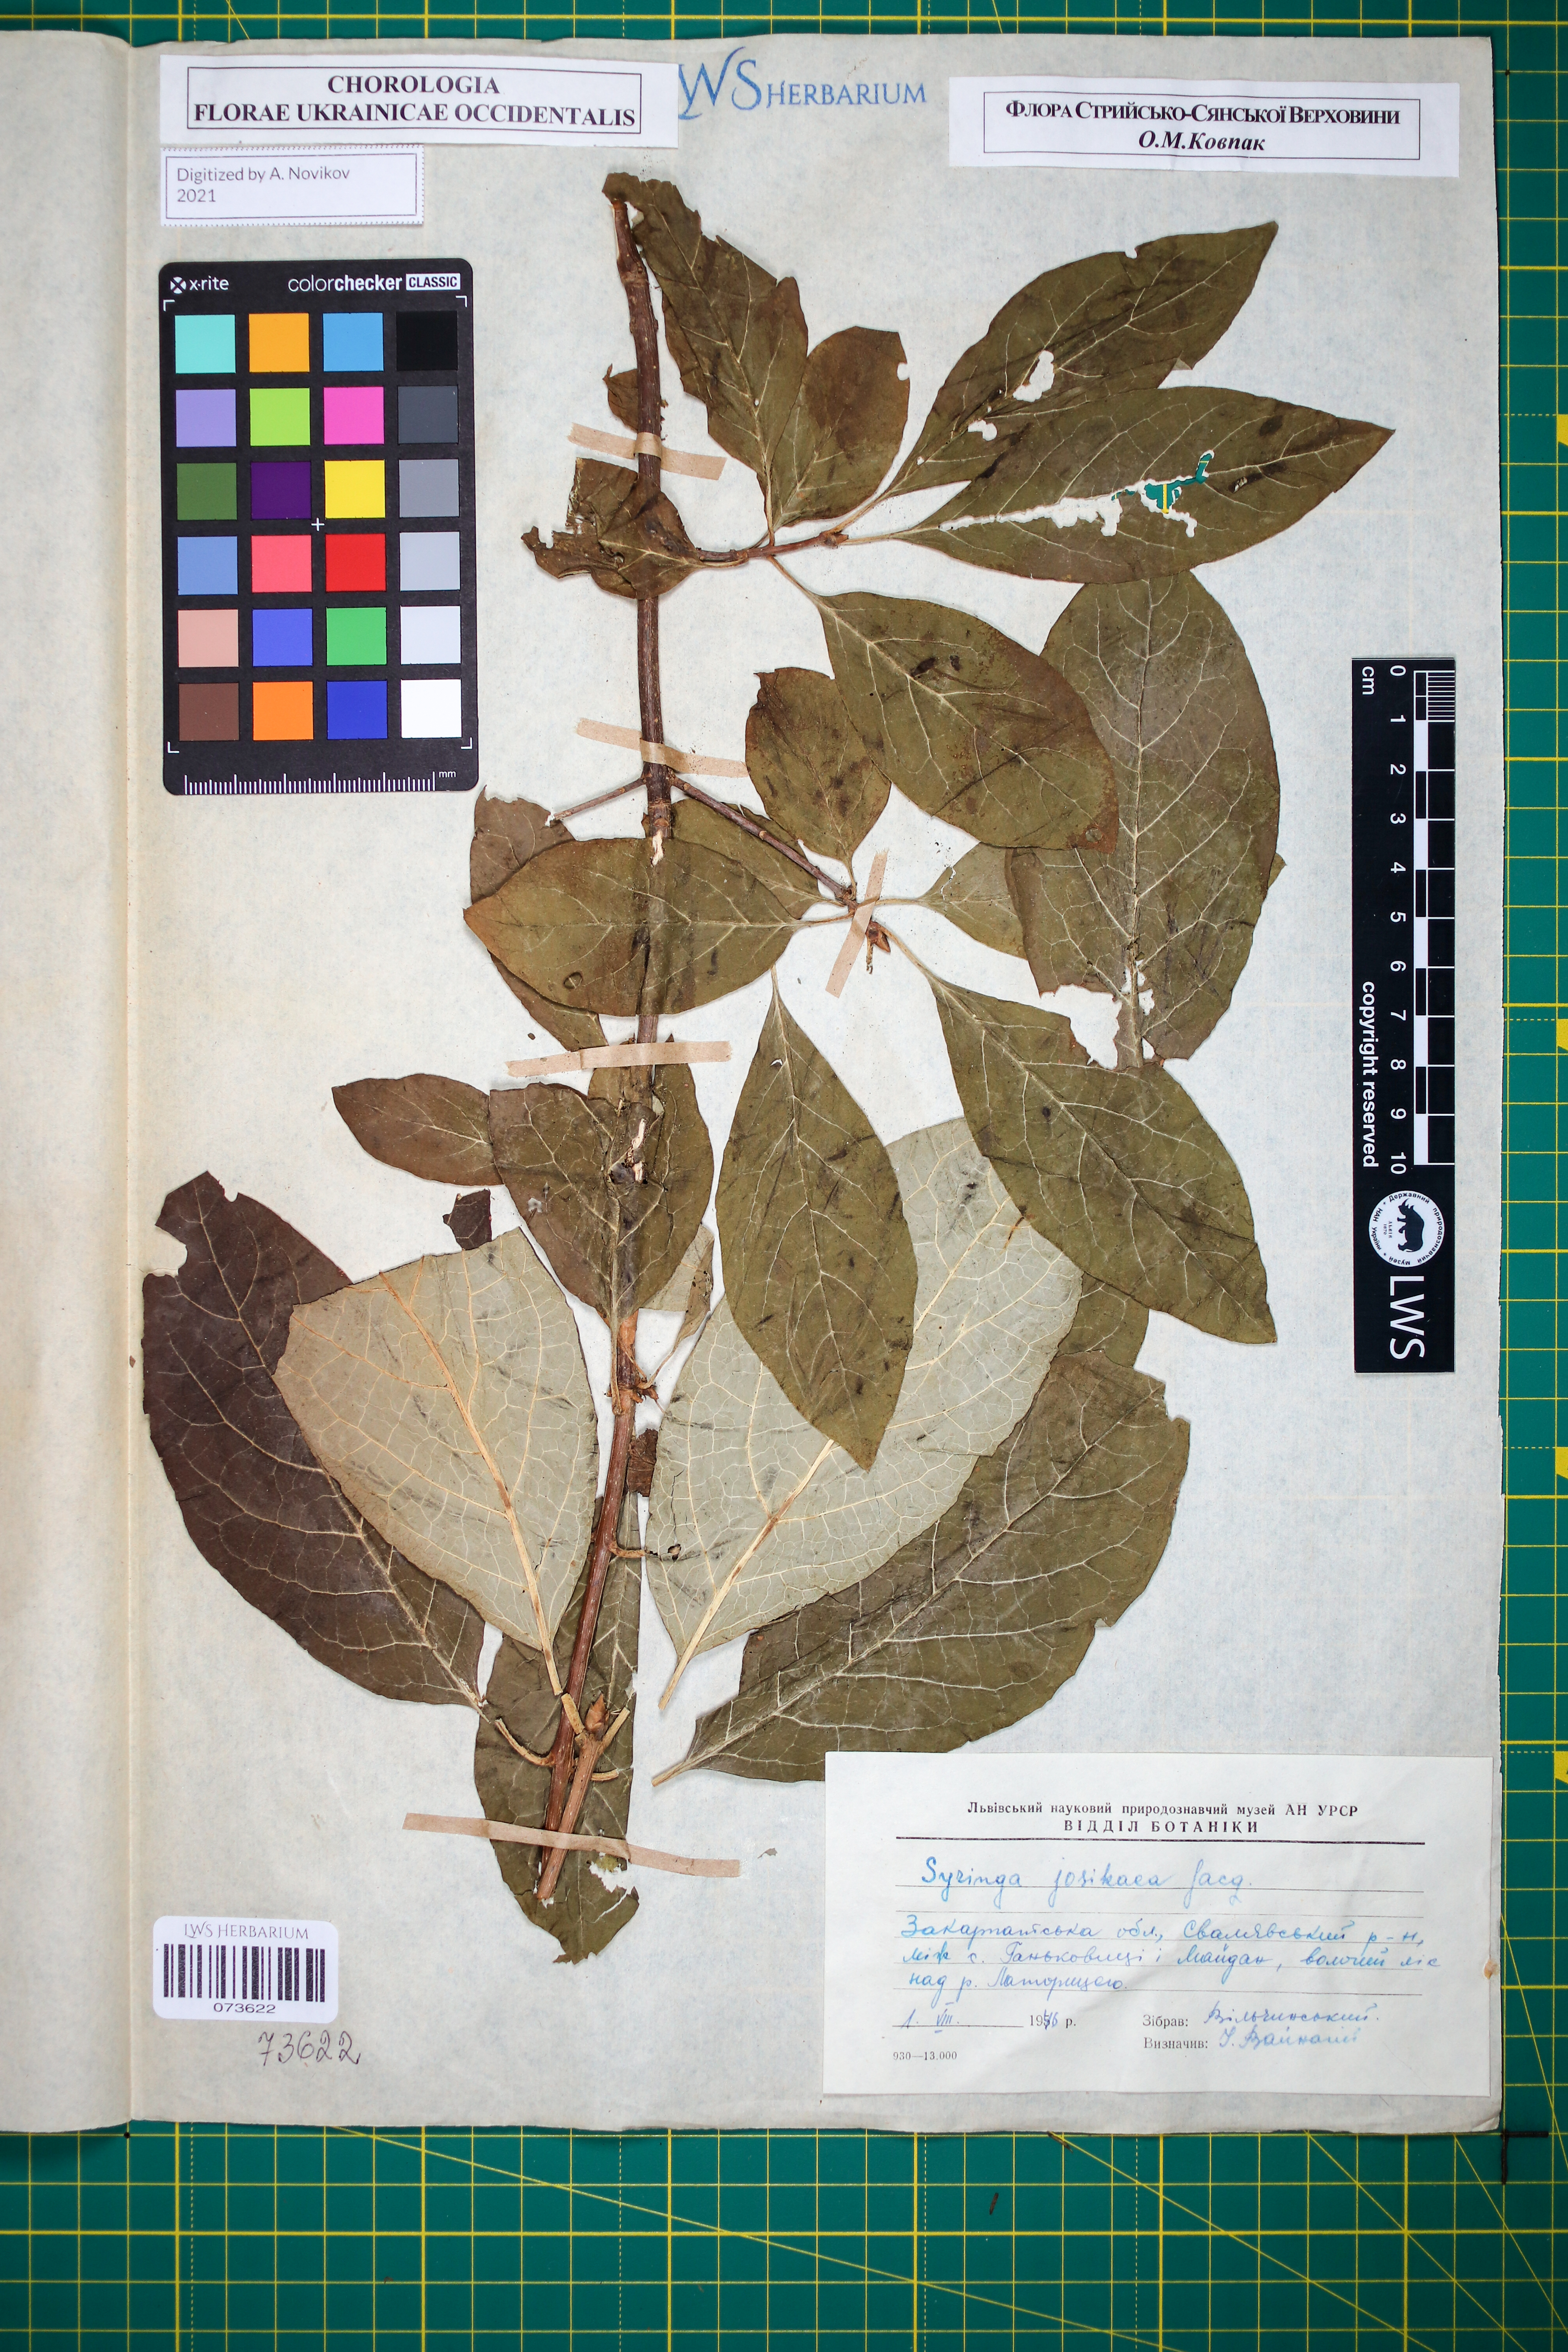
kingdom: Plantae
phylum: Tracheophyta
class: Magnoliopsida
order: Lamiales
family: Oleaceae
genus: Syringa
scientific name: Syringa josikaea
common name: Hungarian lilac
